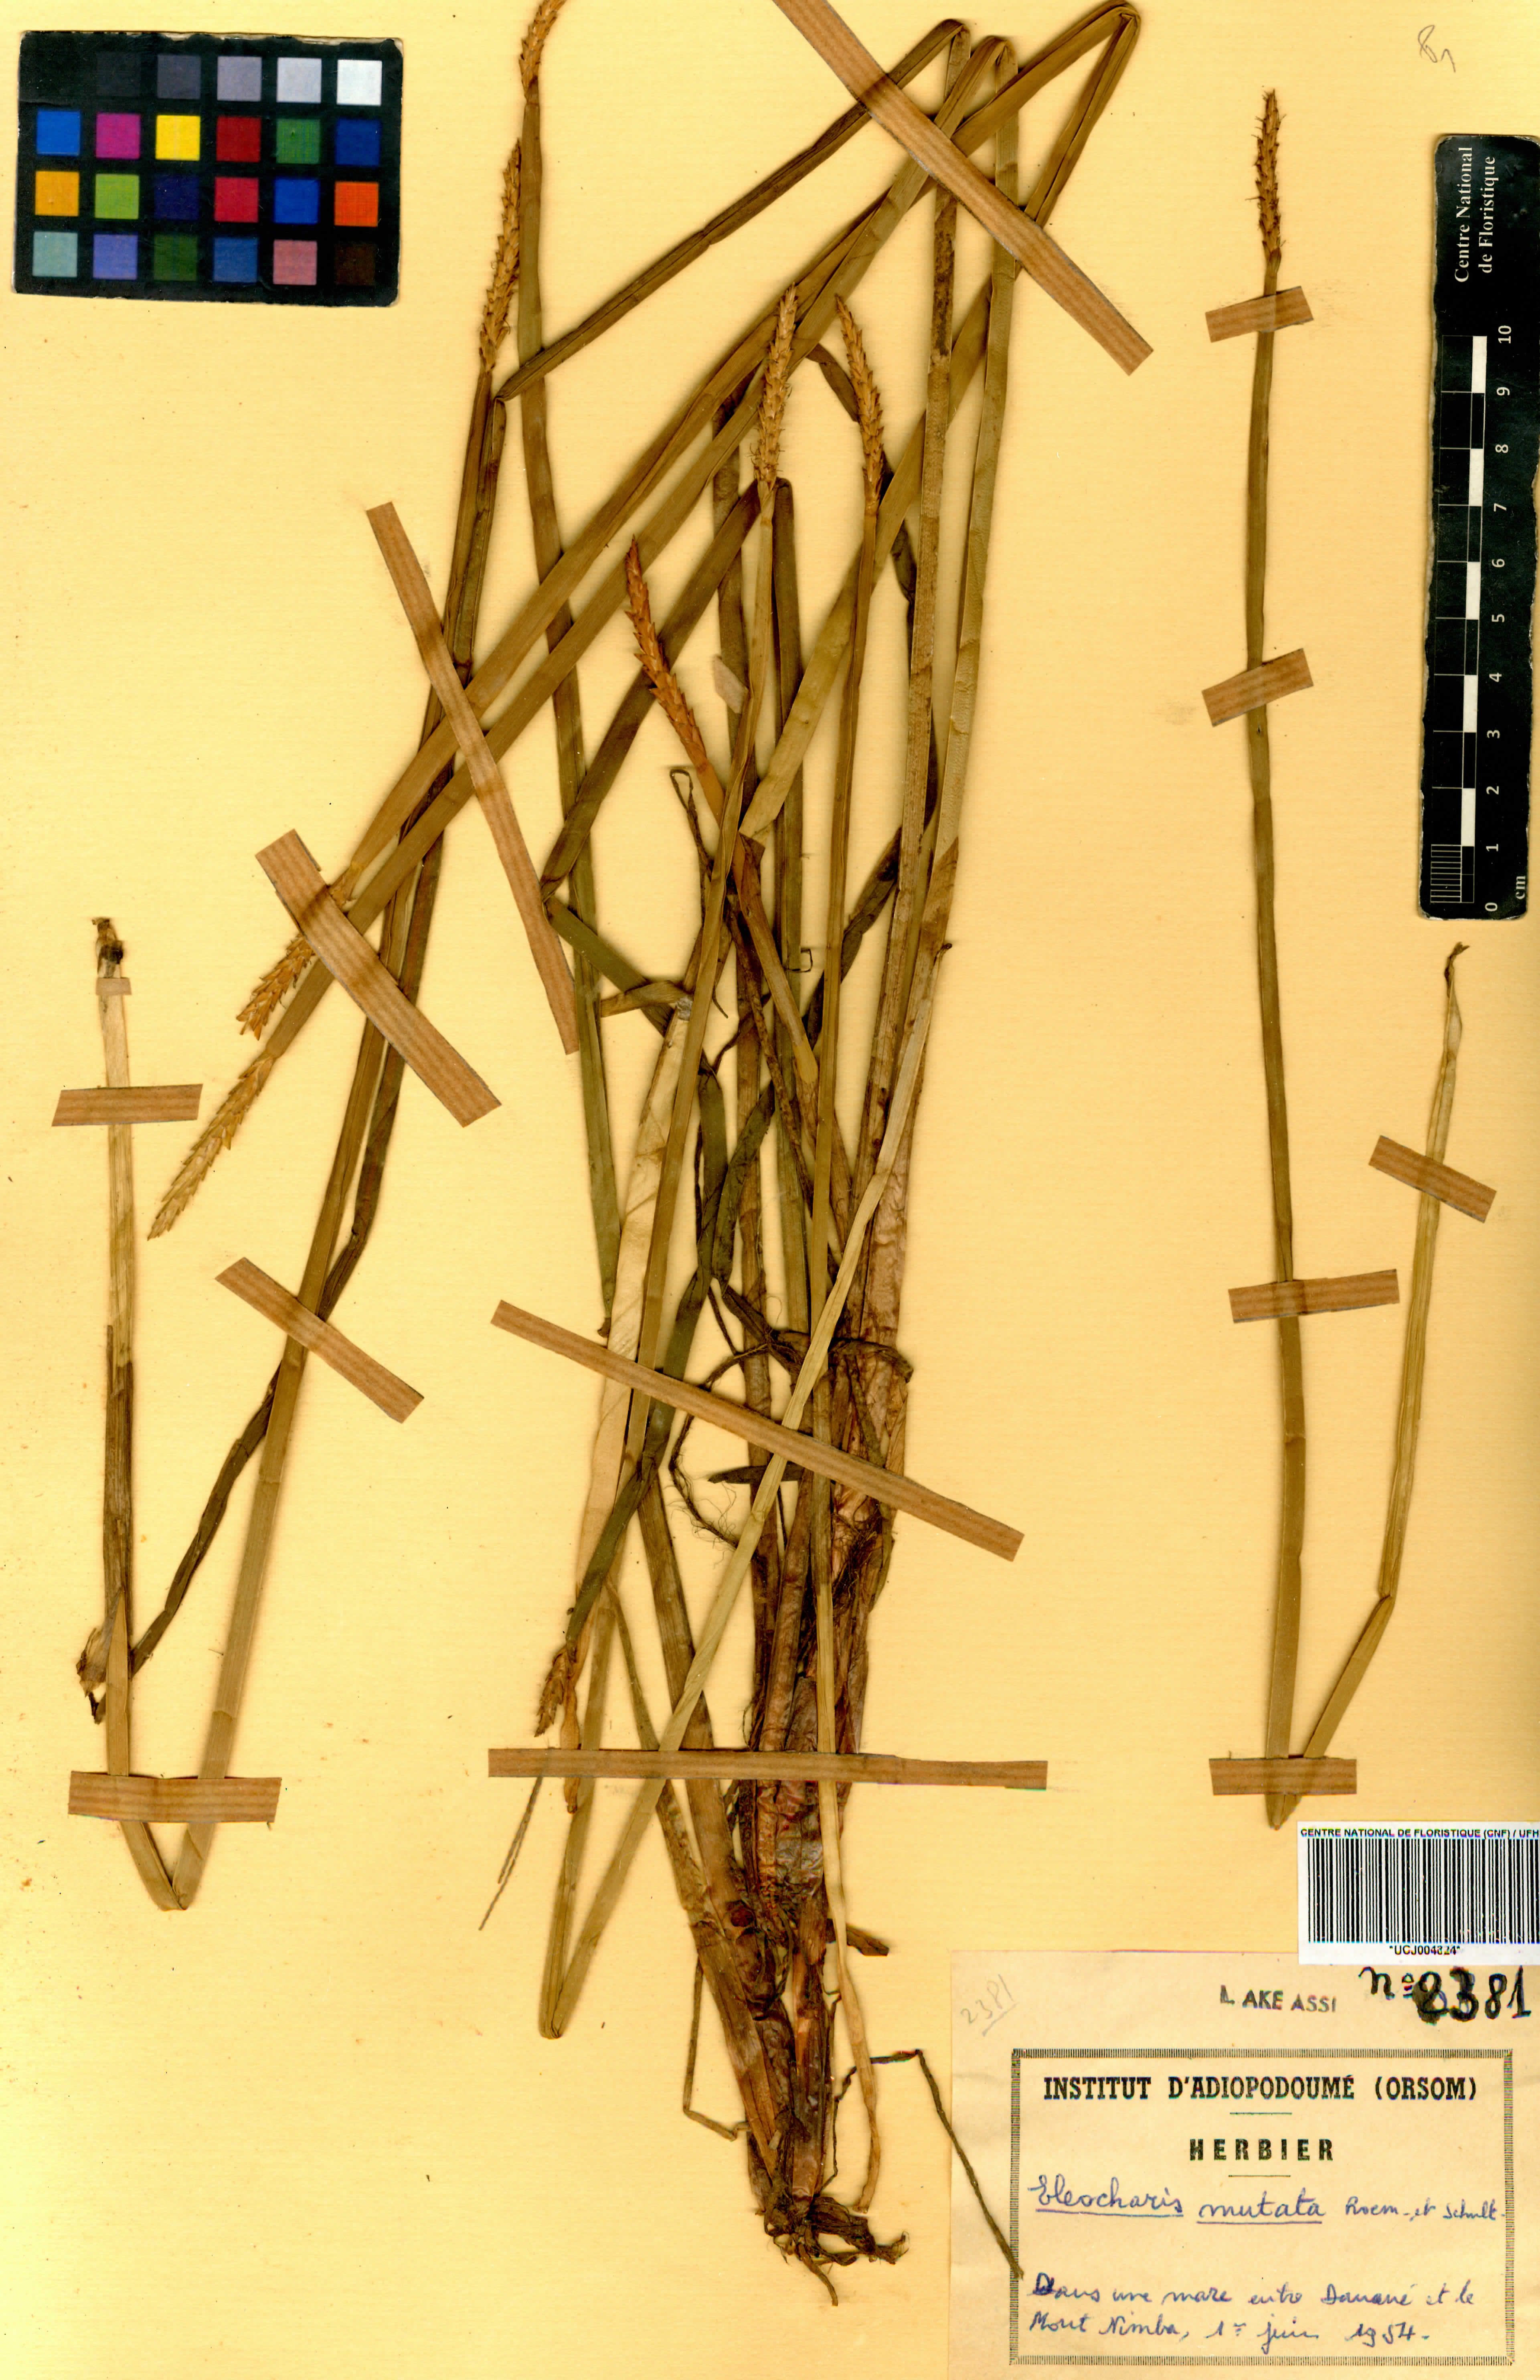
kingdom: Plantae
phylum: Tracheophyta
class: Liliopsida
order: Poales
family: Cyperaceae
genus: Eleocharis
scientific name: Eleocharis mutata
